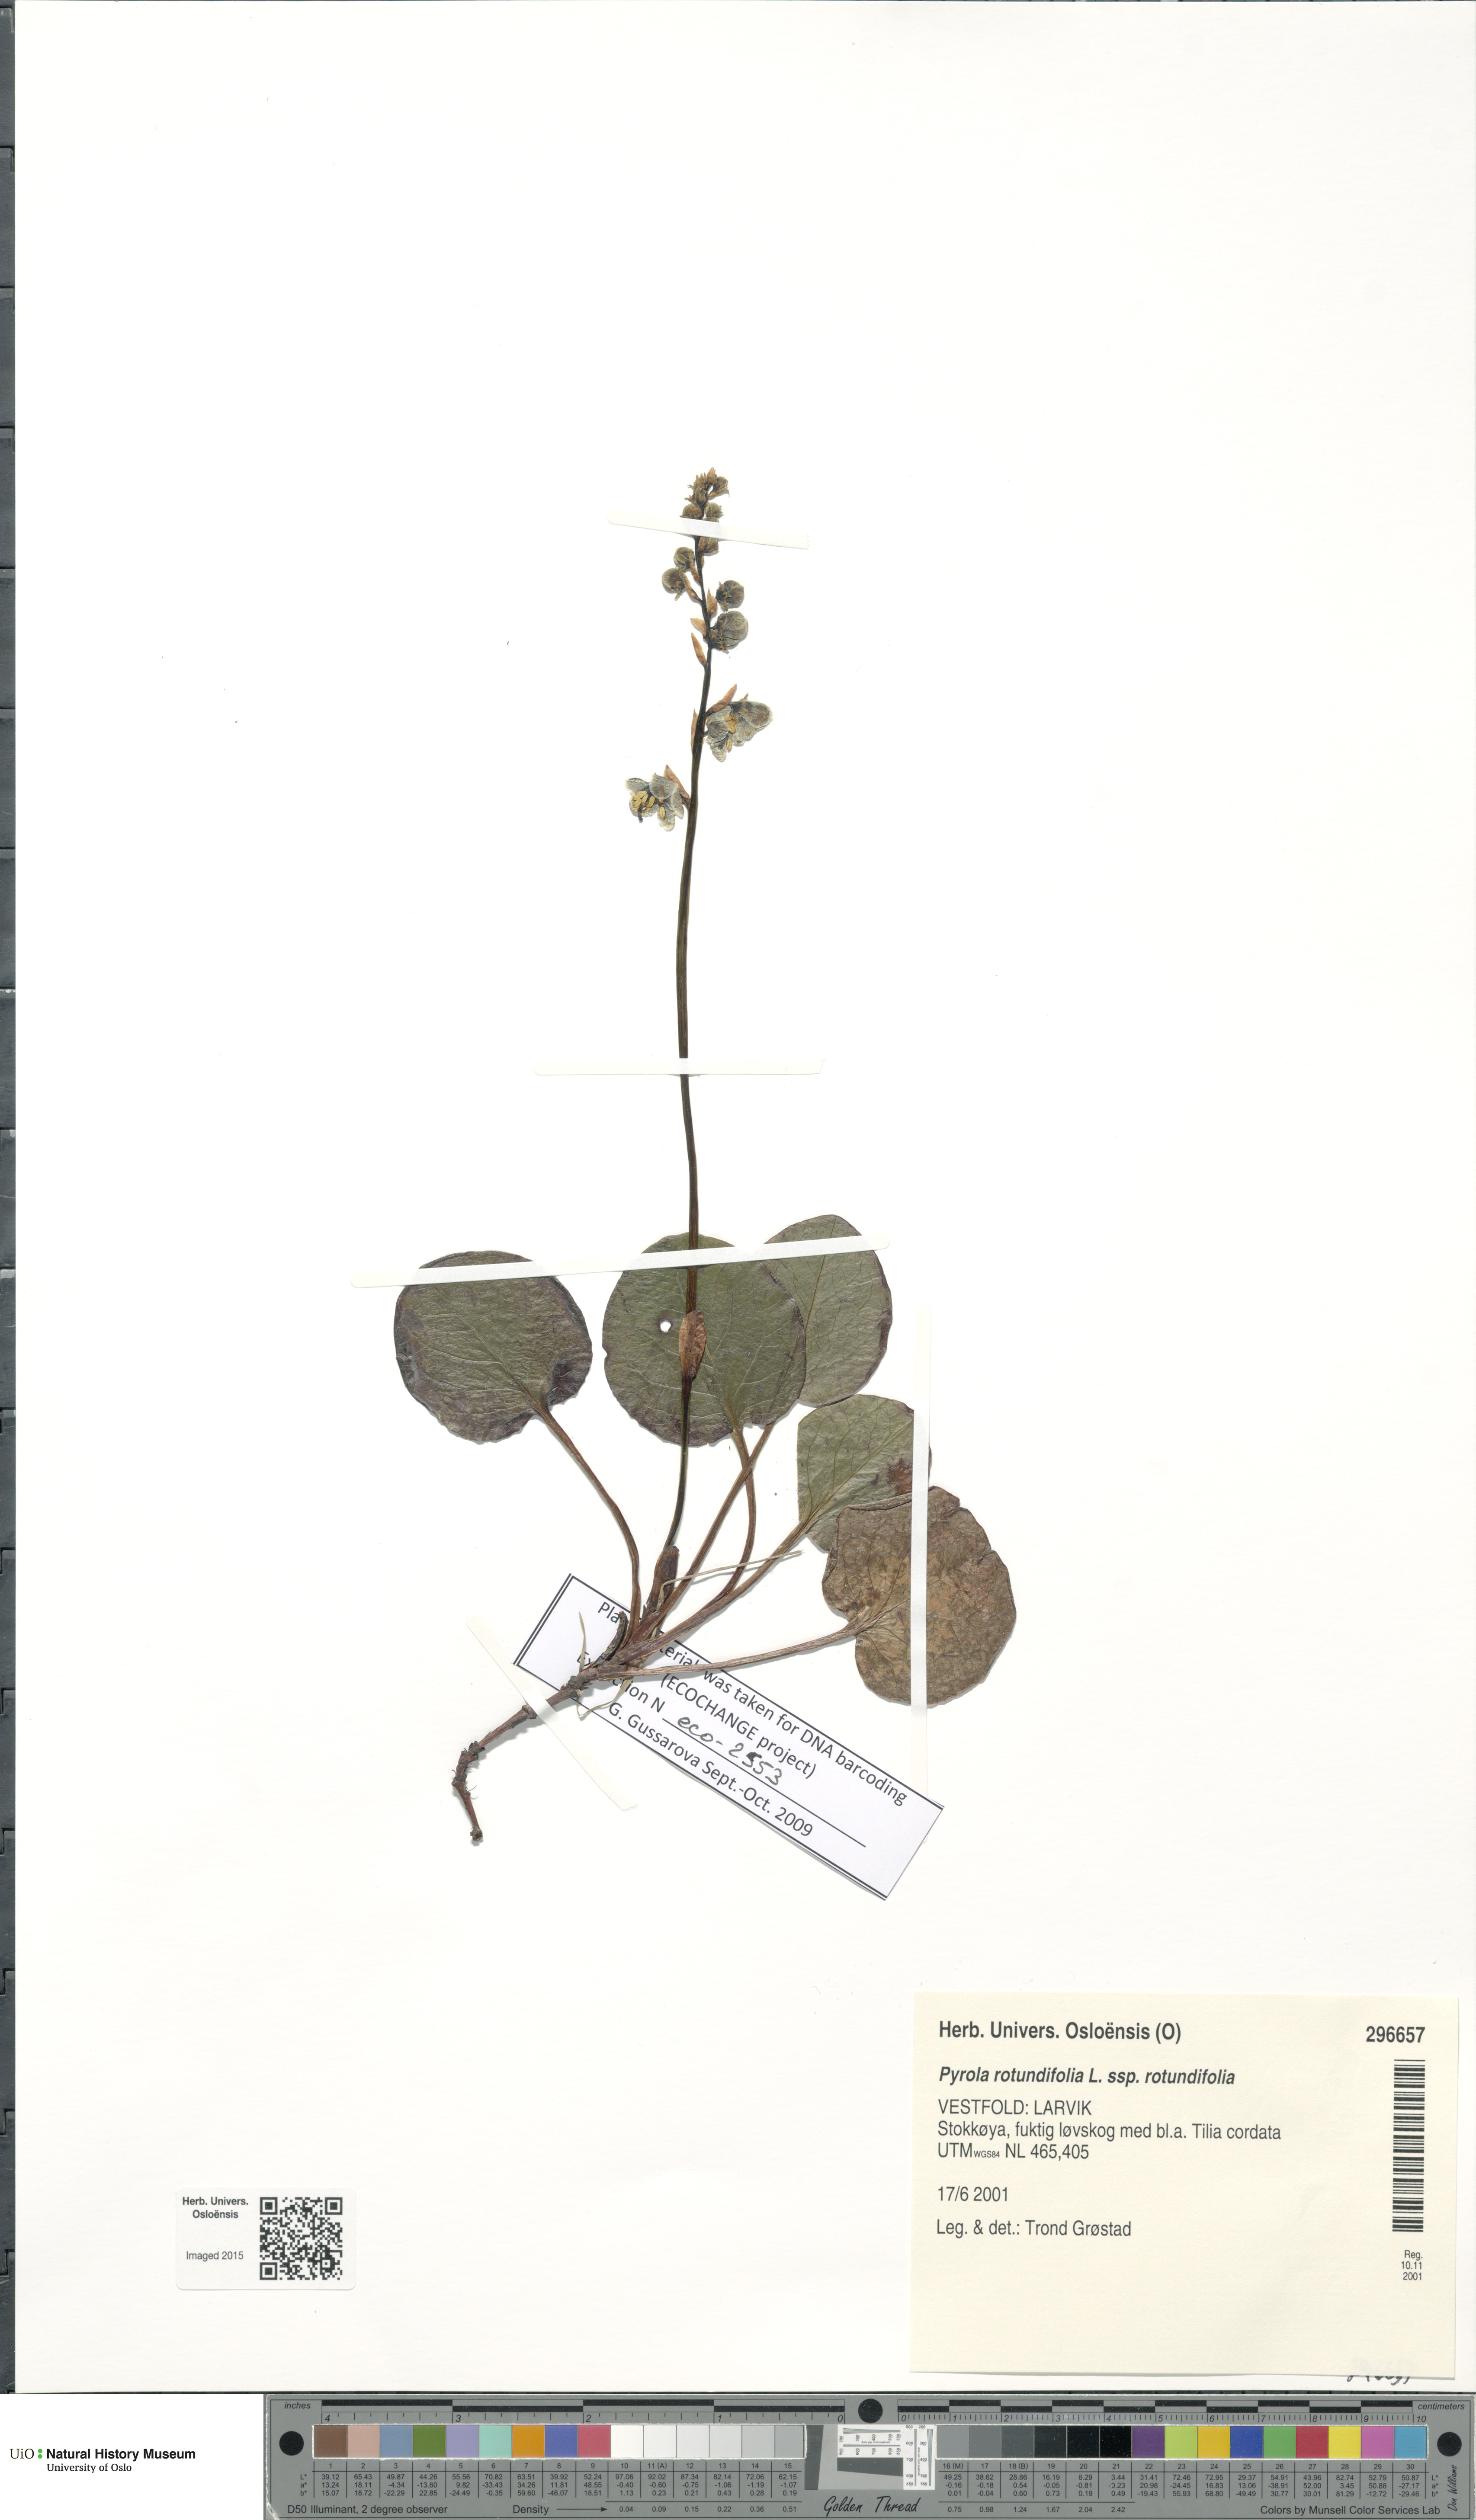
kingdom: Plantae
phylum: Tracheophyta
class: Magnoliopsida
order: Ericales
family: Ericaceae
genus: Pyrola
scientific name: Pyrola rotundifolia
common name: Round-leaved wintergreen
